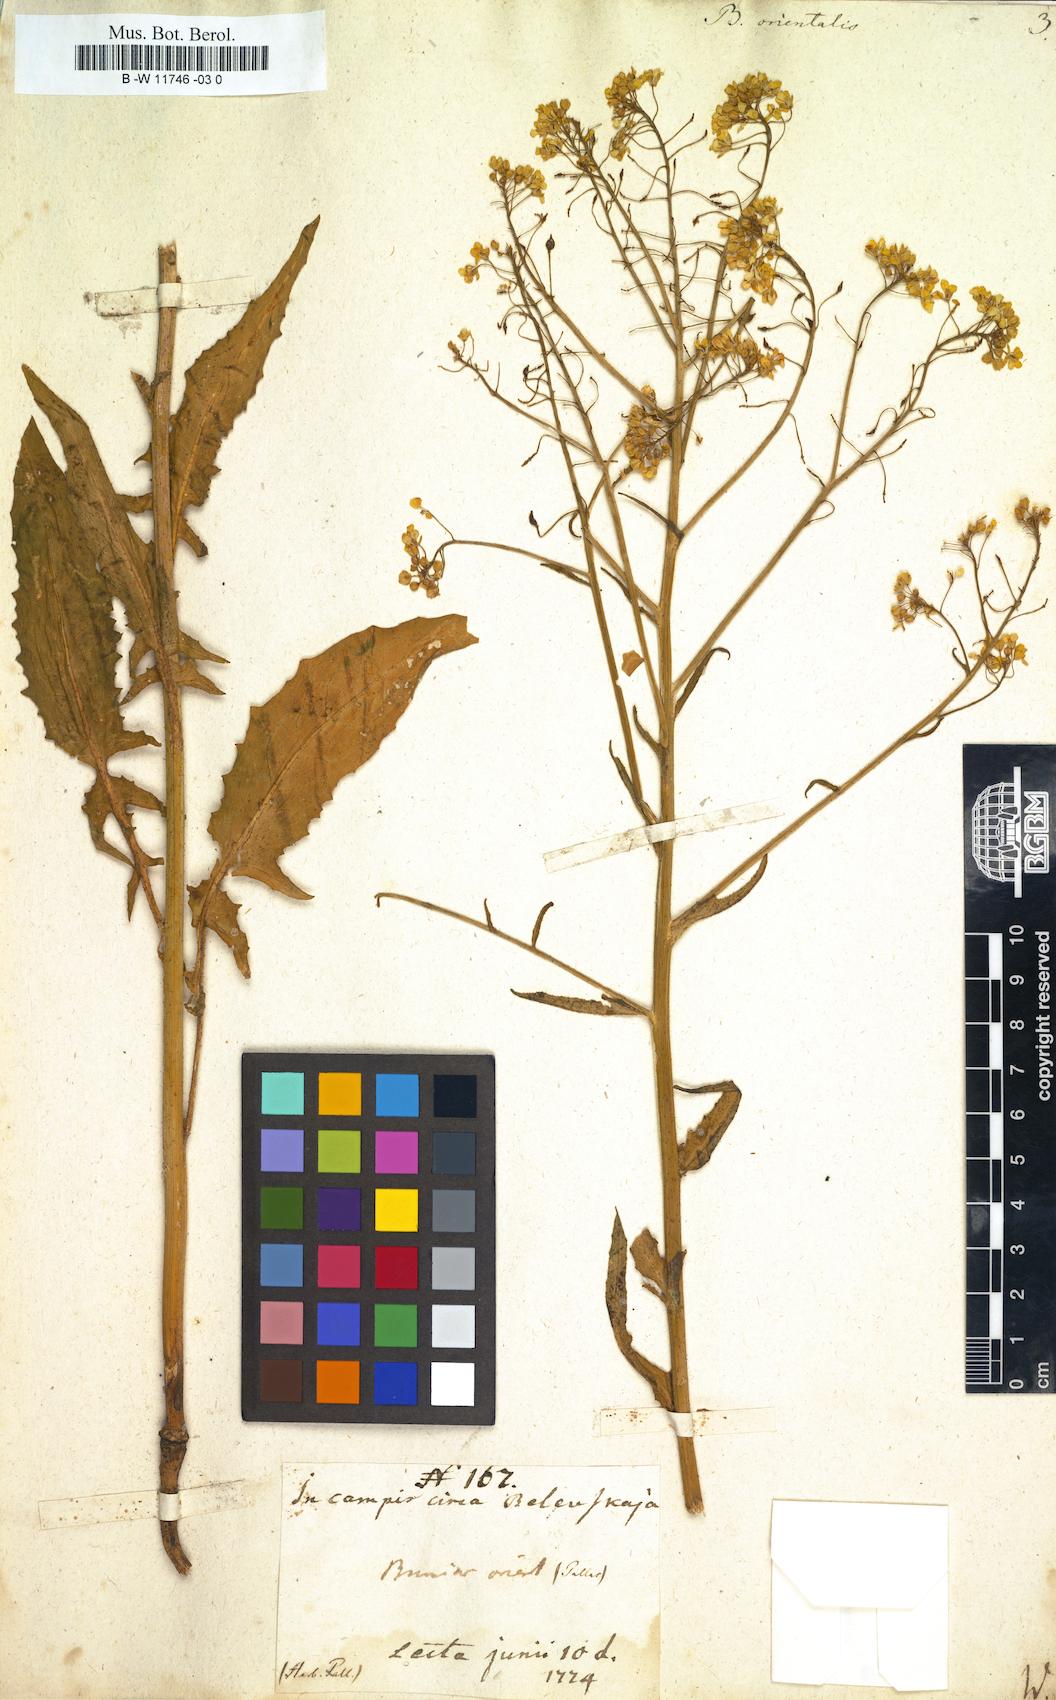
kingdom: Plantae
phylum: Tracheophyta
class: Magnoliopsida
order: Brassicales
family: Brassicaceae
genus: Bunias
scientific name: Bunias orientalis
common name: Warty-cabbage
